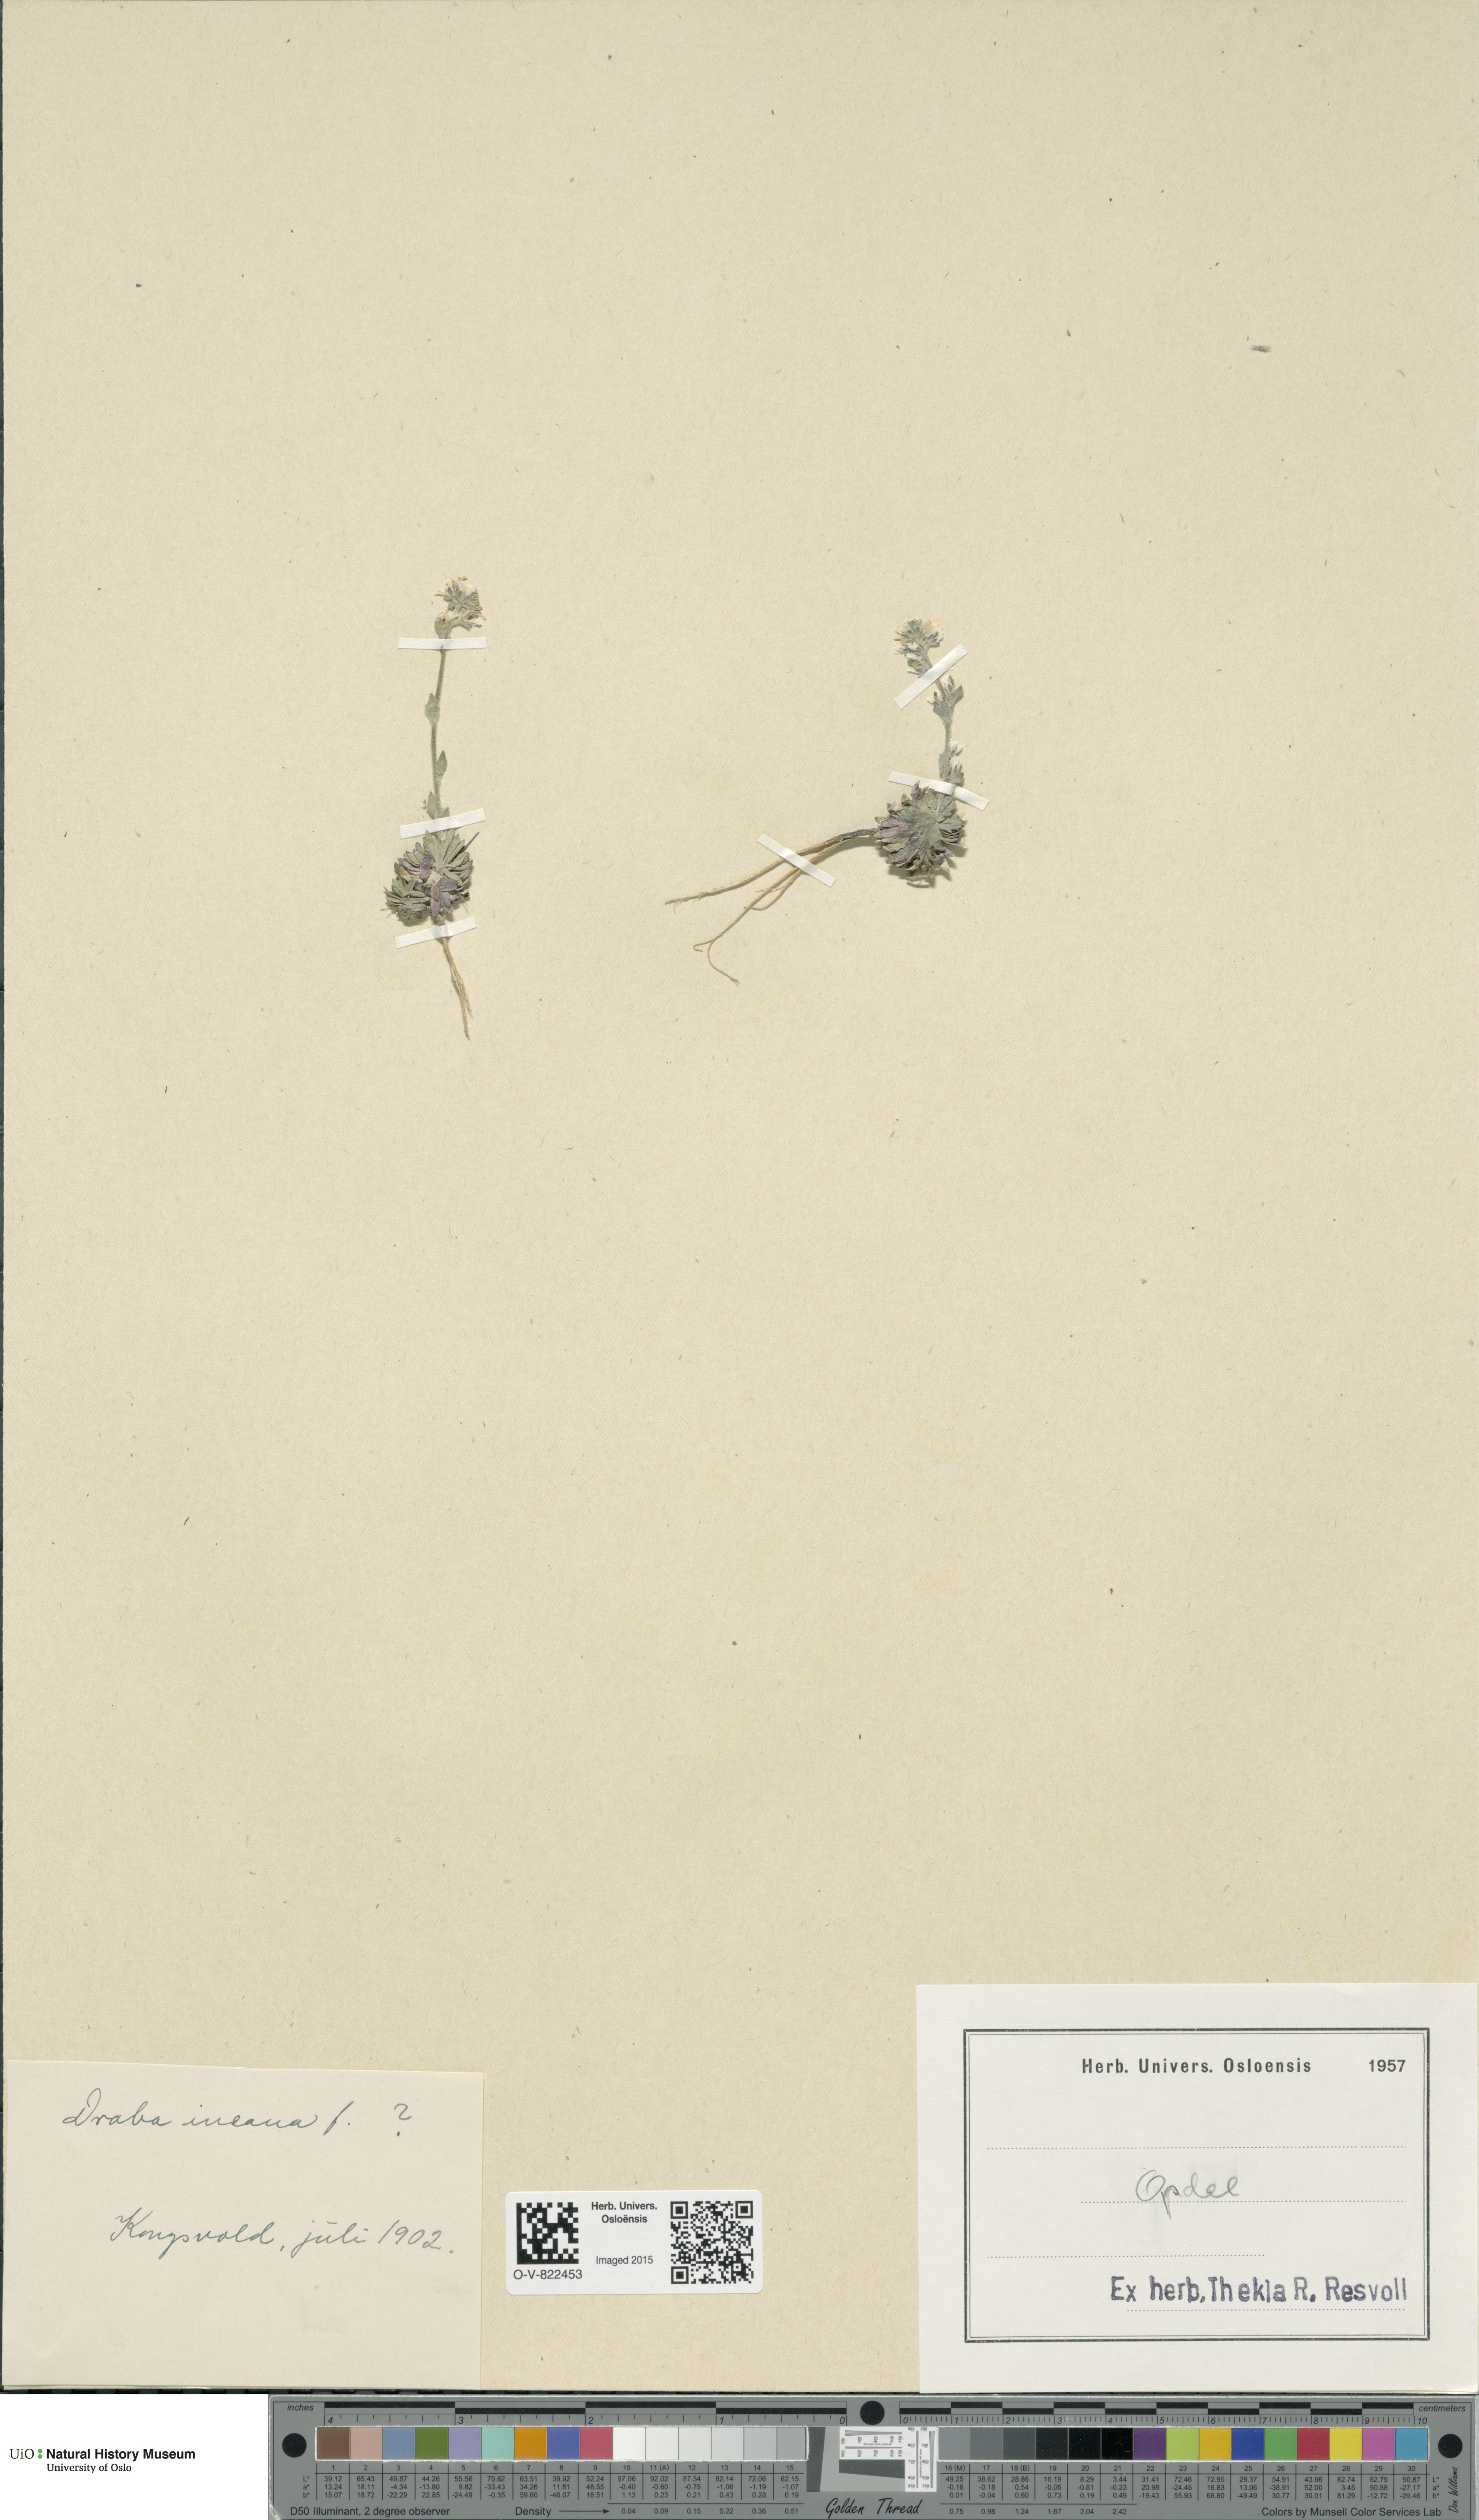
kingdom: Plantae
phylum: Tracheophyta
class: Magnoliopsida
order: Brassicales
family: Brassicaceae
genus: Draba
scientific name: Draba incana
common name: Hoary whitlow-grass
